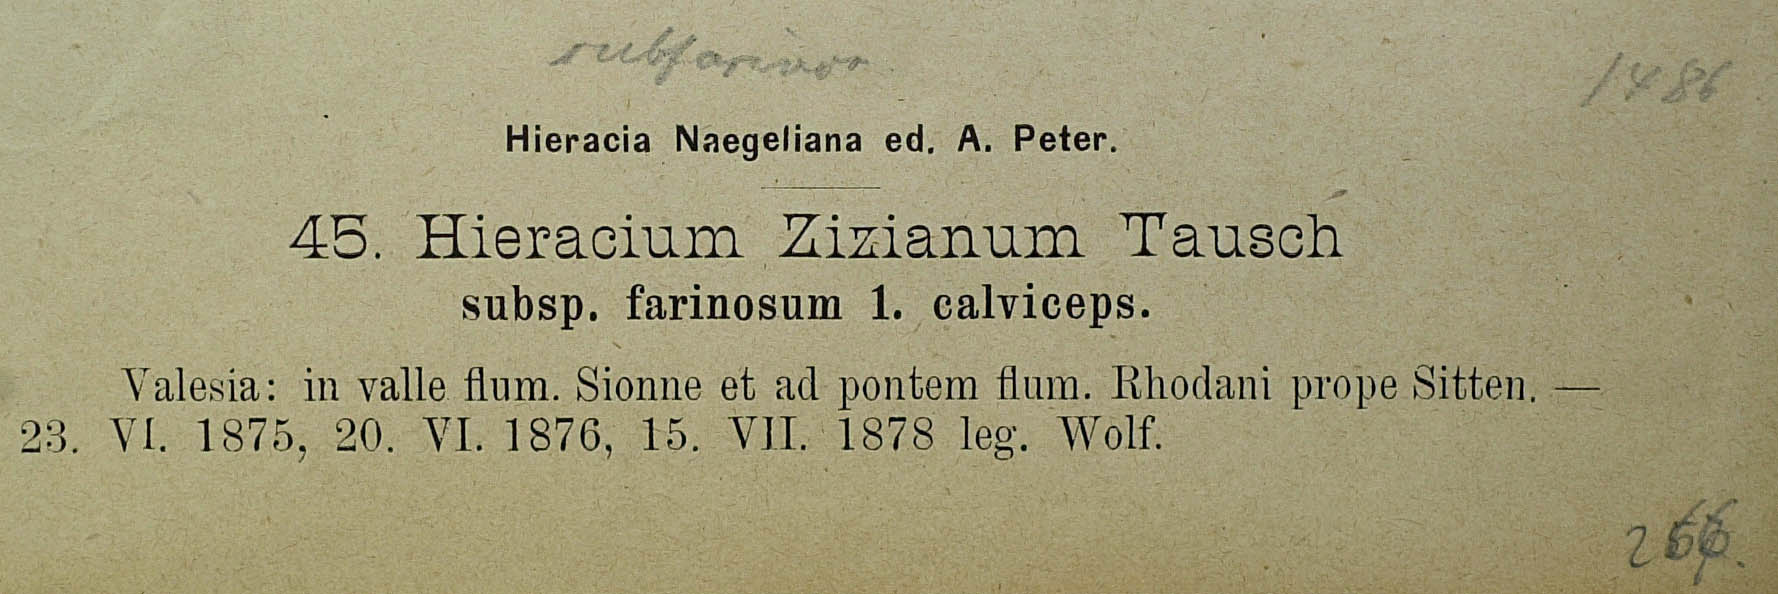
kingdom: Plantae
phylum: Tracheophyta
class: Magnoliopsida
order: Asterales
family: Asteraceae
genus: Pilosella
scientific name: Pilosella ziziana
